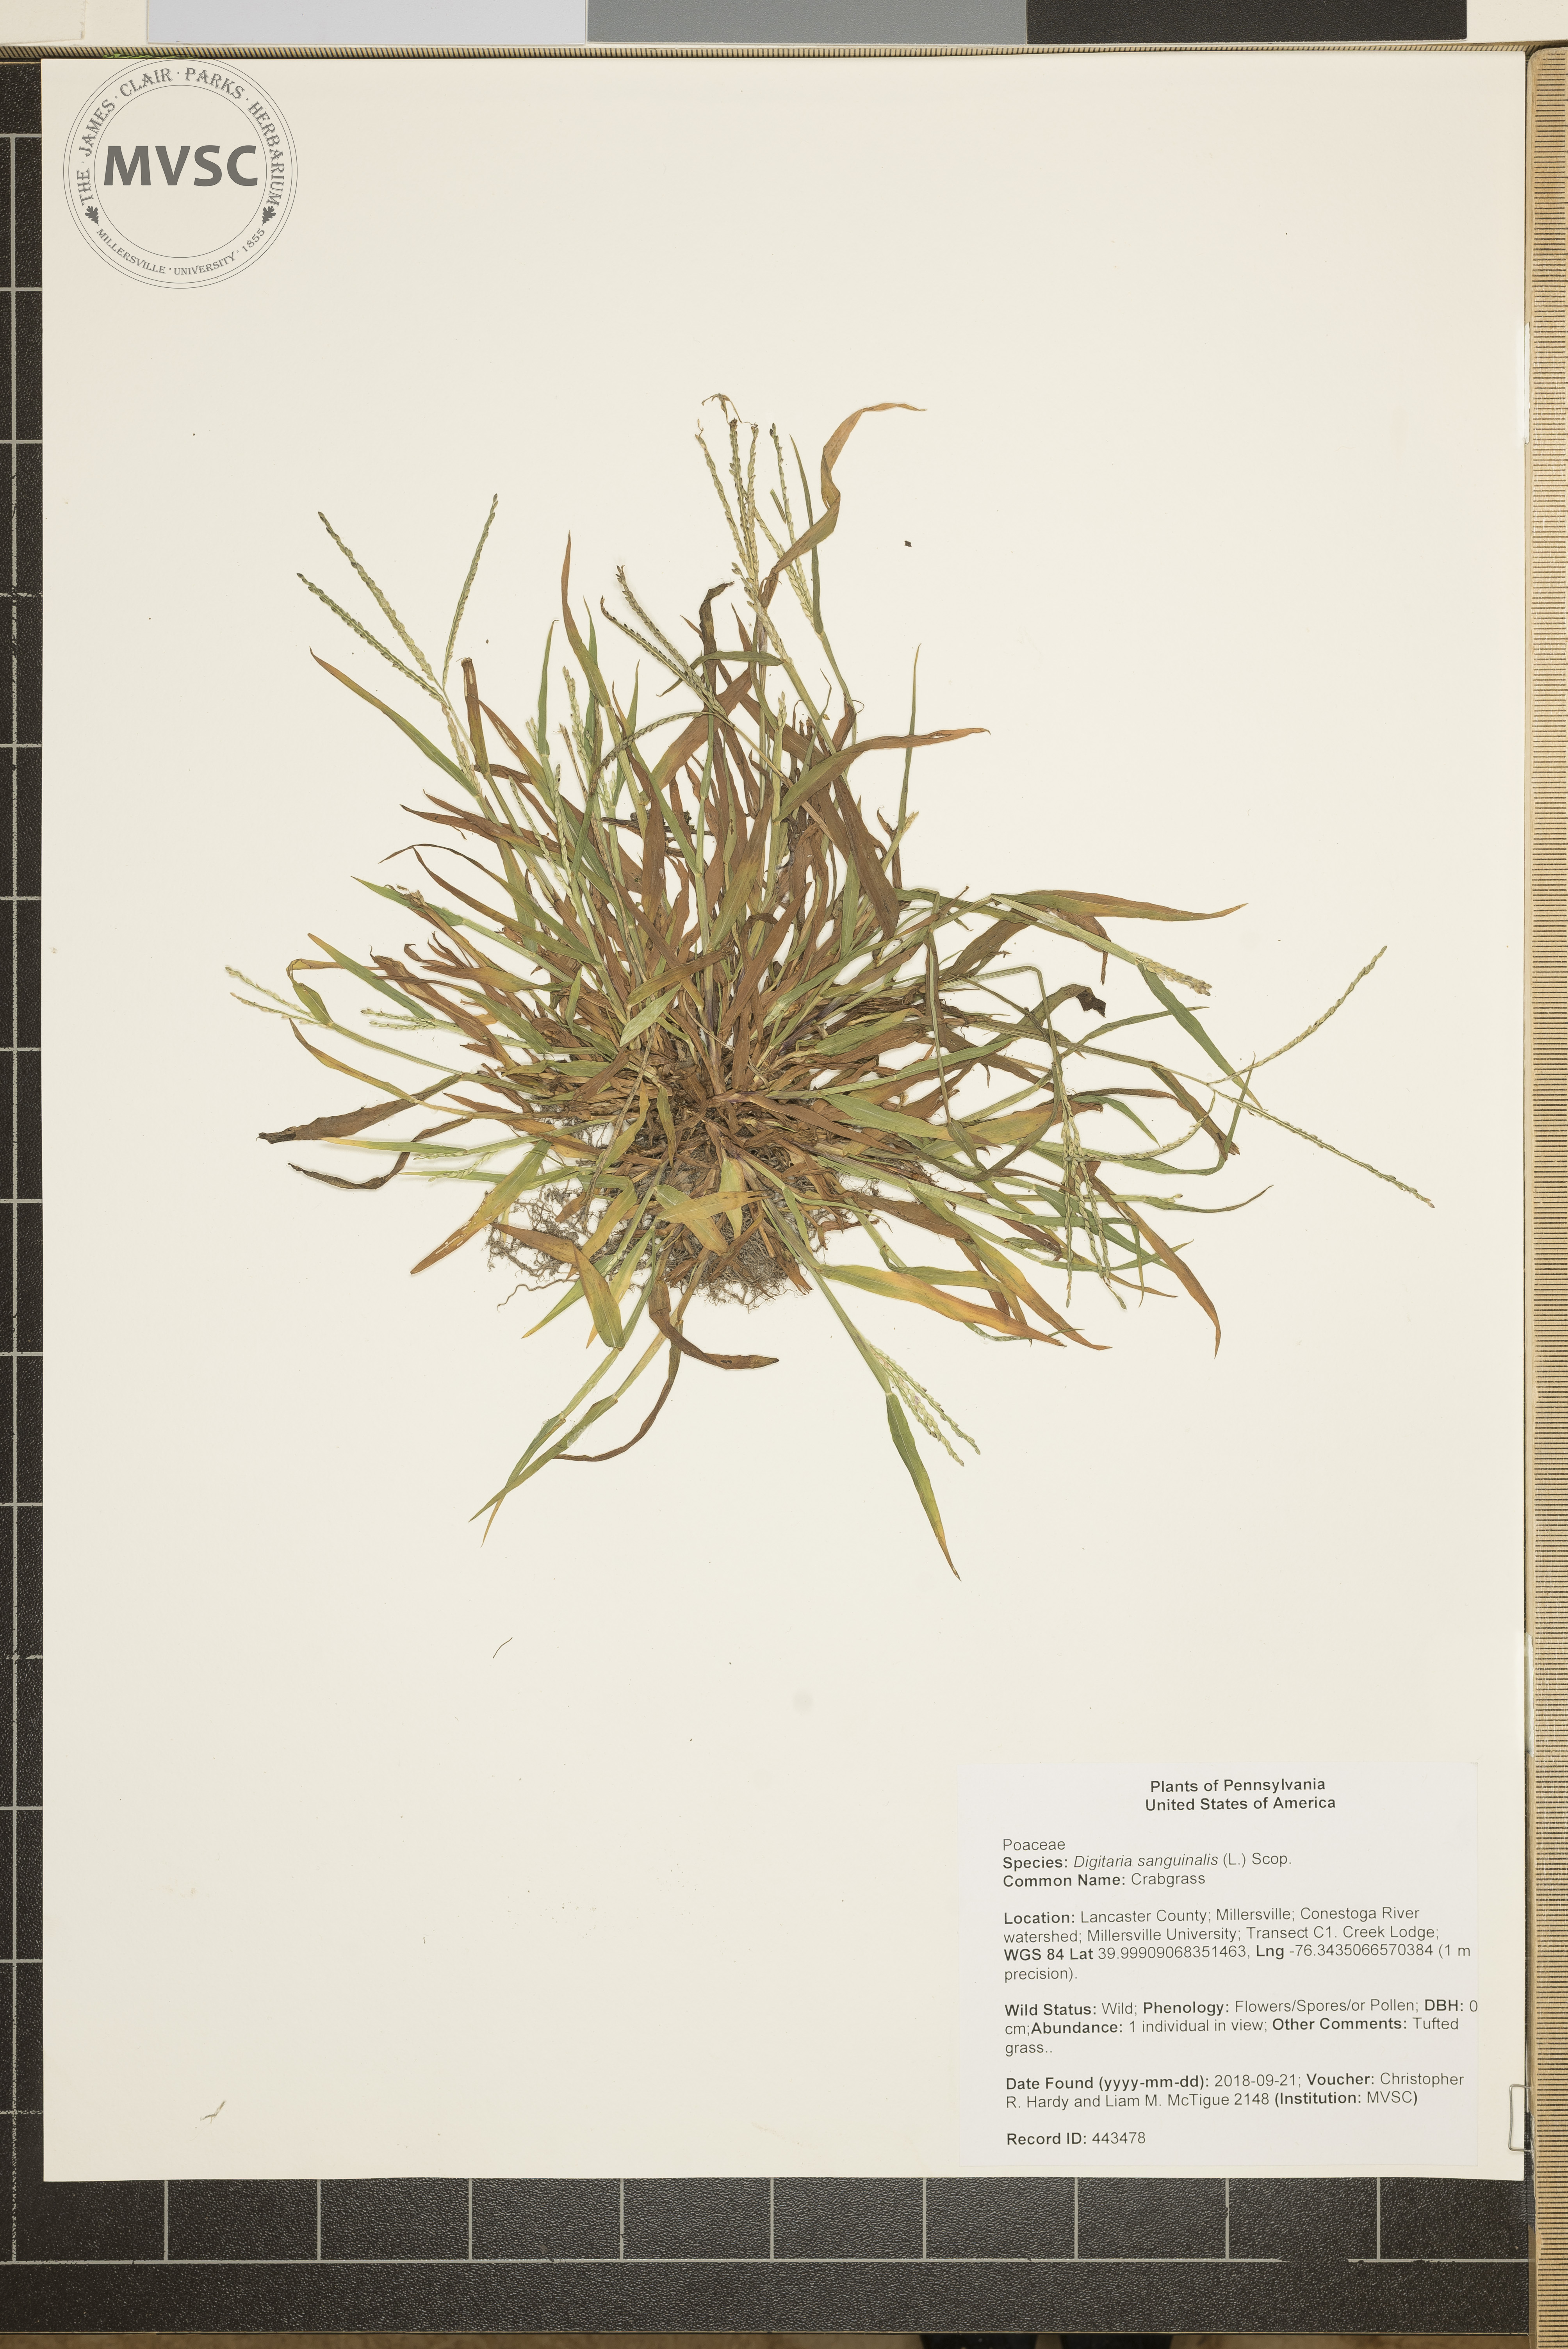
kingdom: Plantae
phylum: Tracheophyta
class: Liliopsida
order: Poales
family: Poaceae
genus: Digitaria
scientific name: Digitaria sanguinalis
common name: Crabgrass
